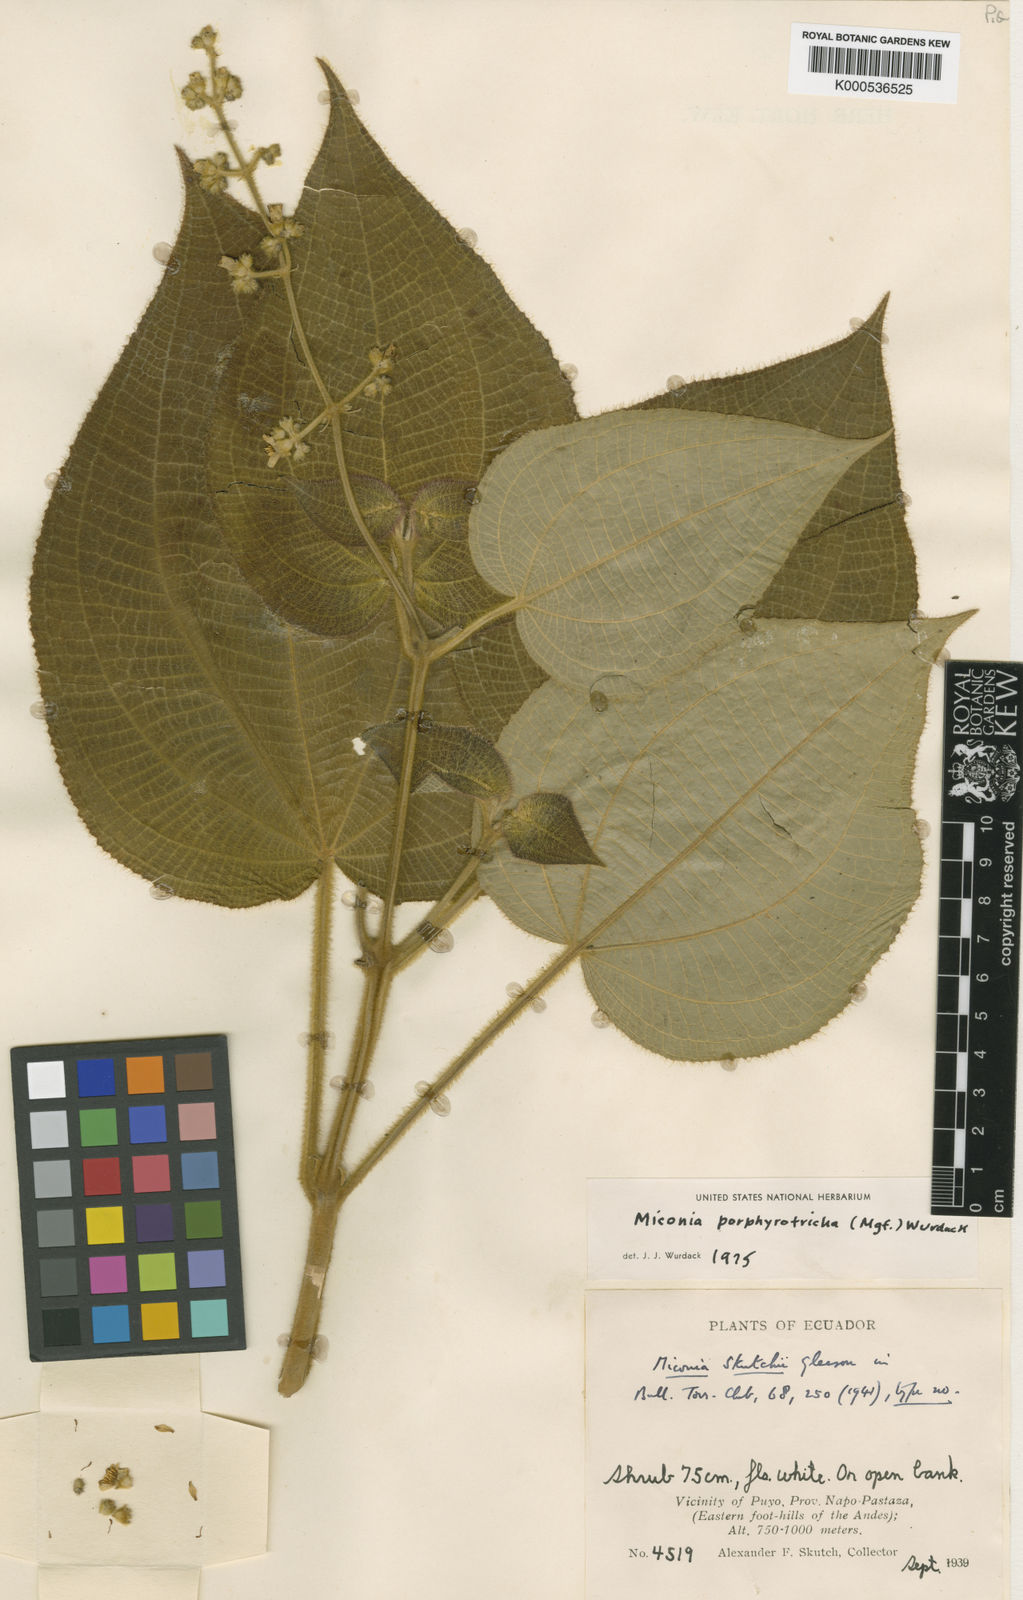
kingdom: Plantae
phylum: Tracheophyta
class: Magnoliopsida
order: Myrtales
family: Melastomataceae
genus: Miconia
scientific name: Miconia porphyrotricha
